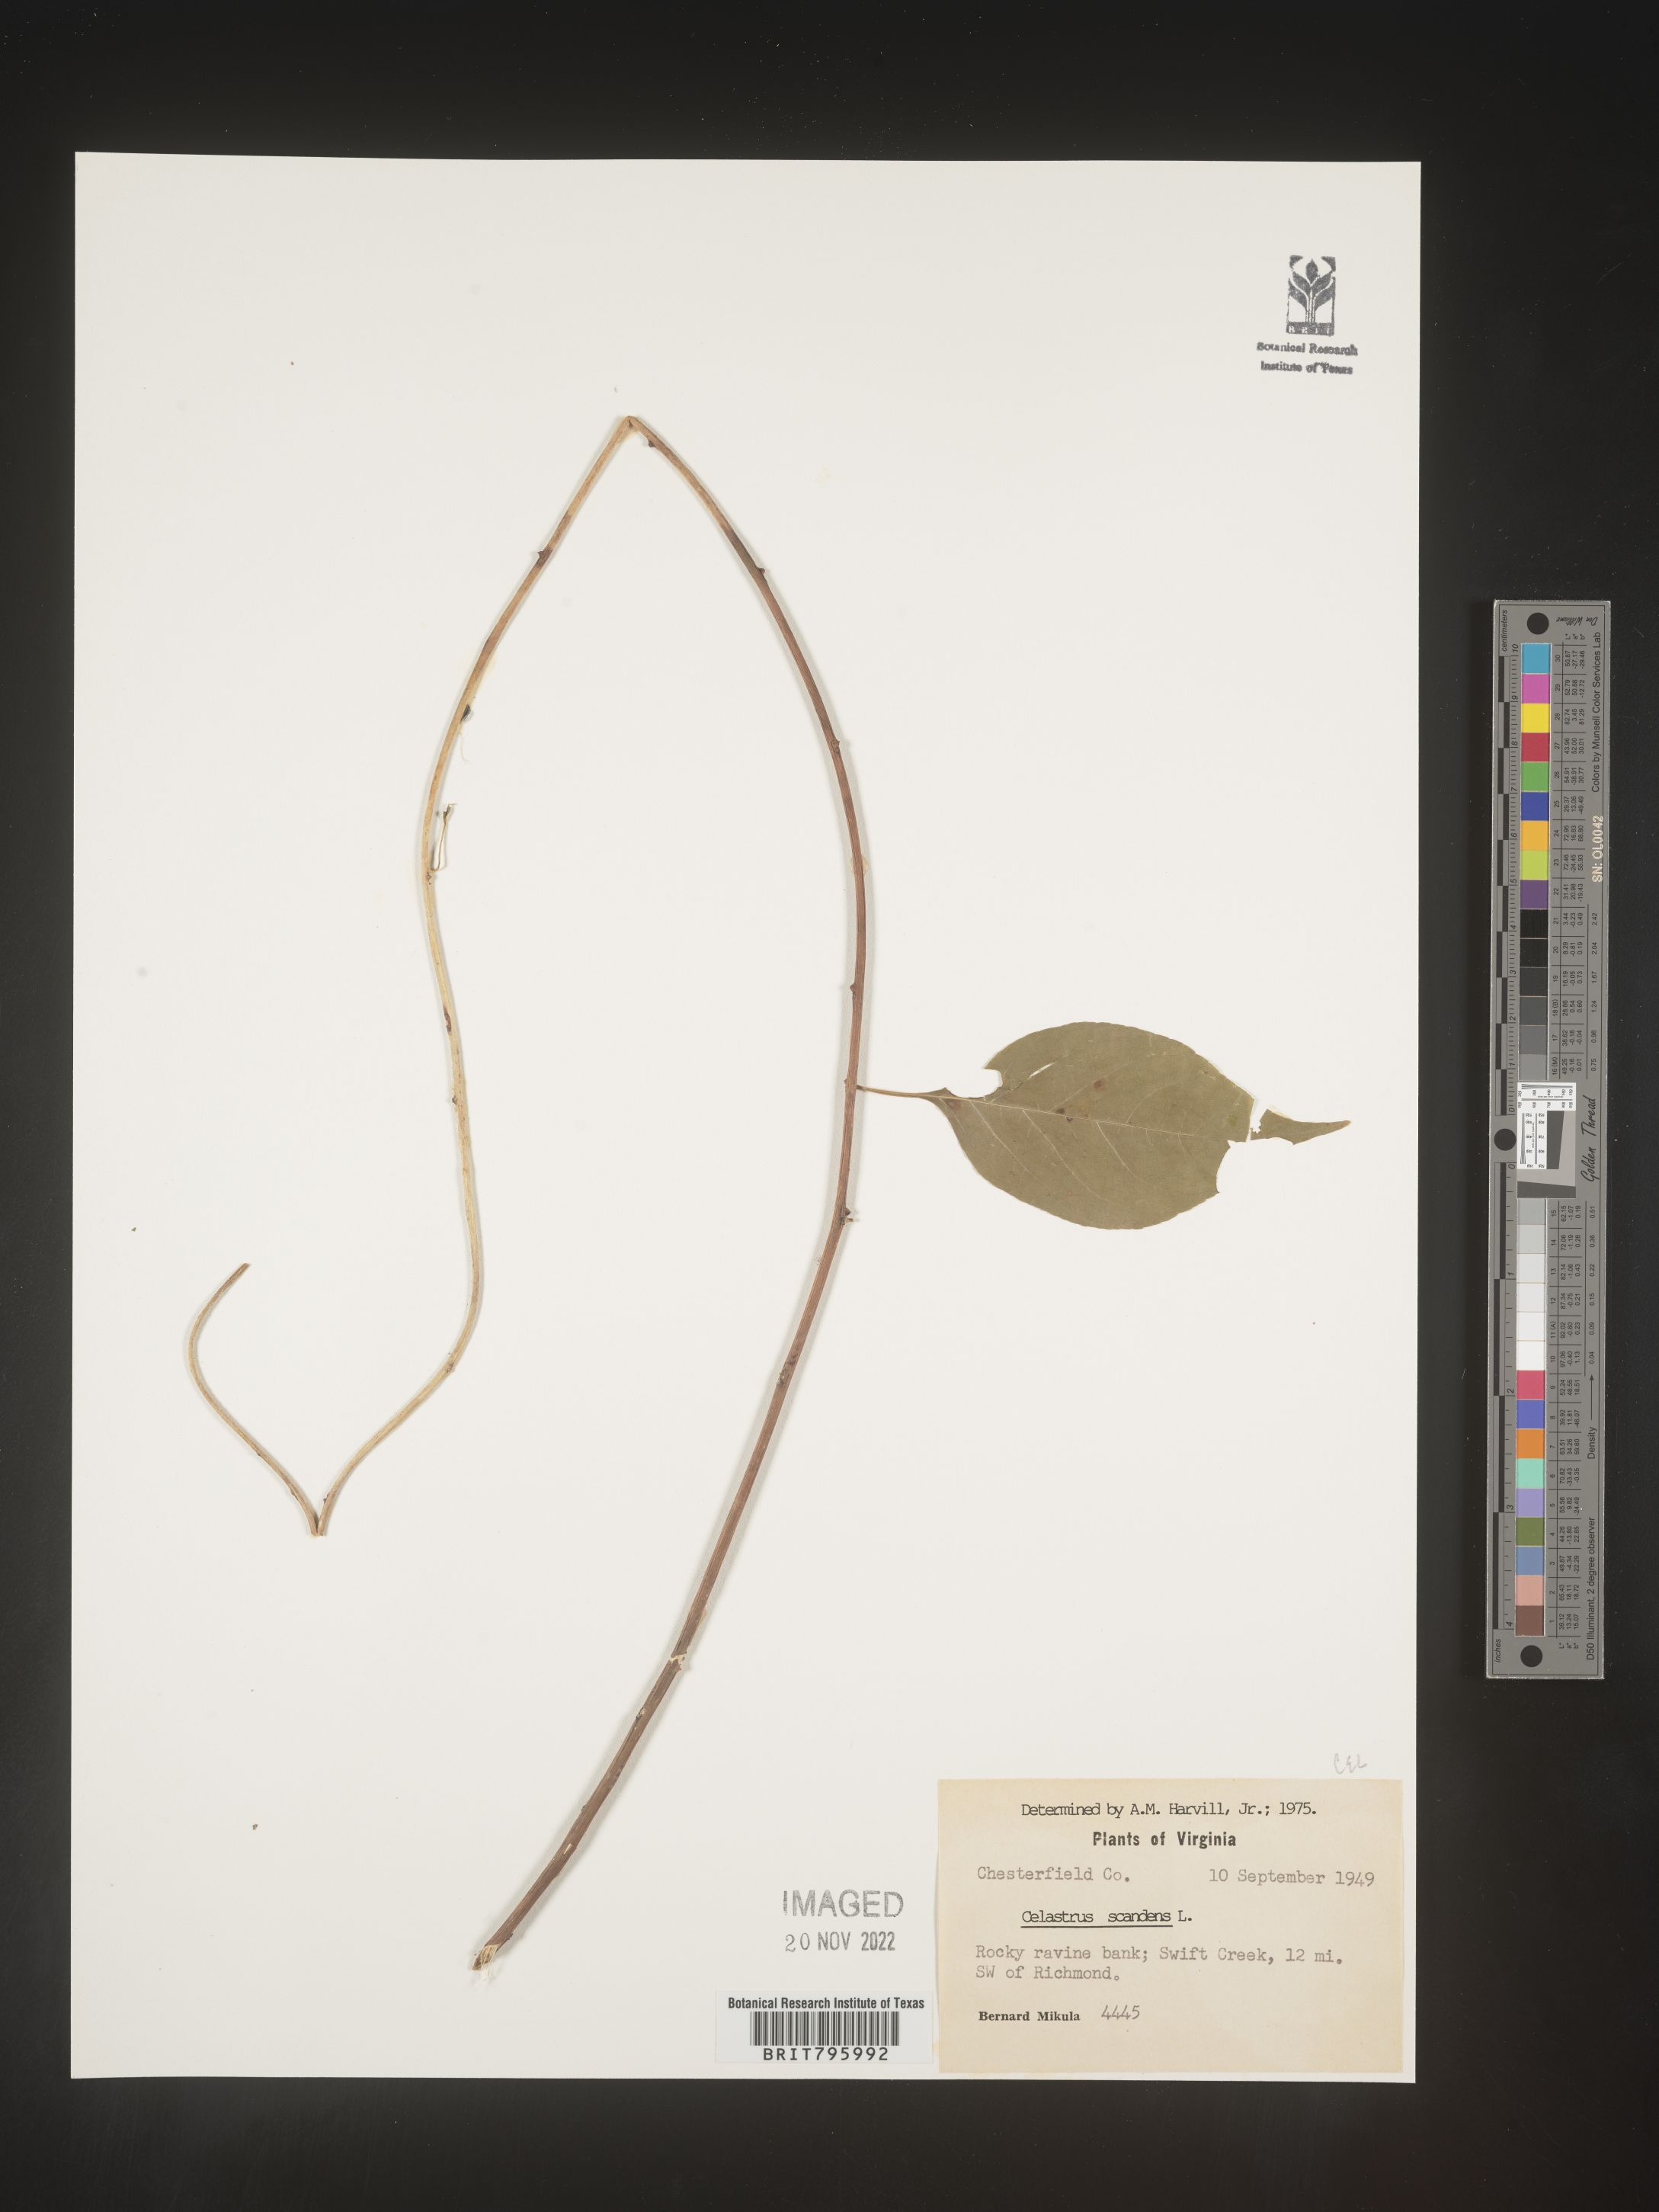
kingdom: Plantae
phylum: Tracheophyta
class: Magnoliopsida
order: Celastrales
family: Celastraceae
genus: Celastrus
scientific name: Celastrus
